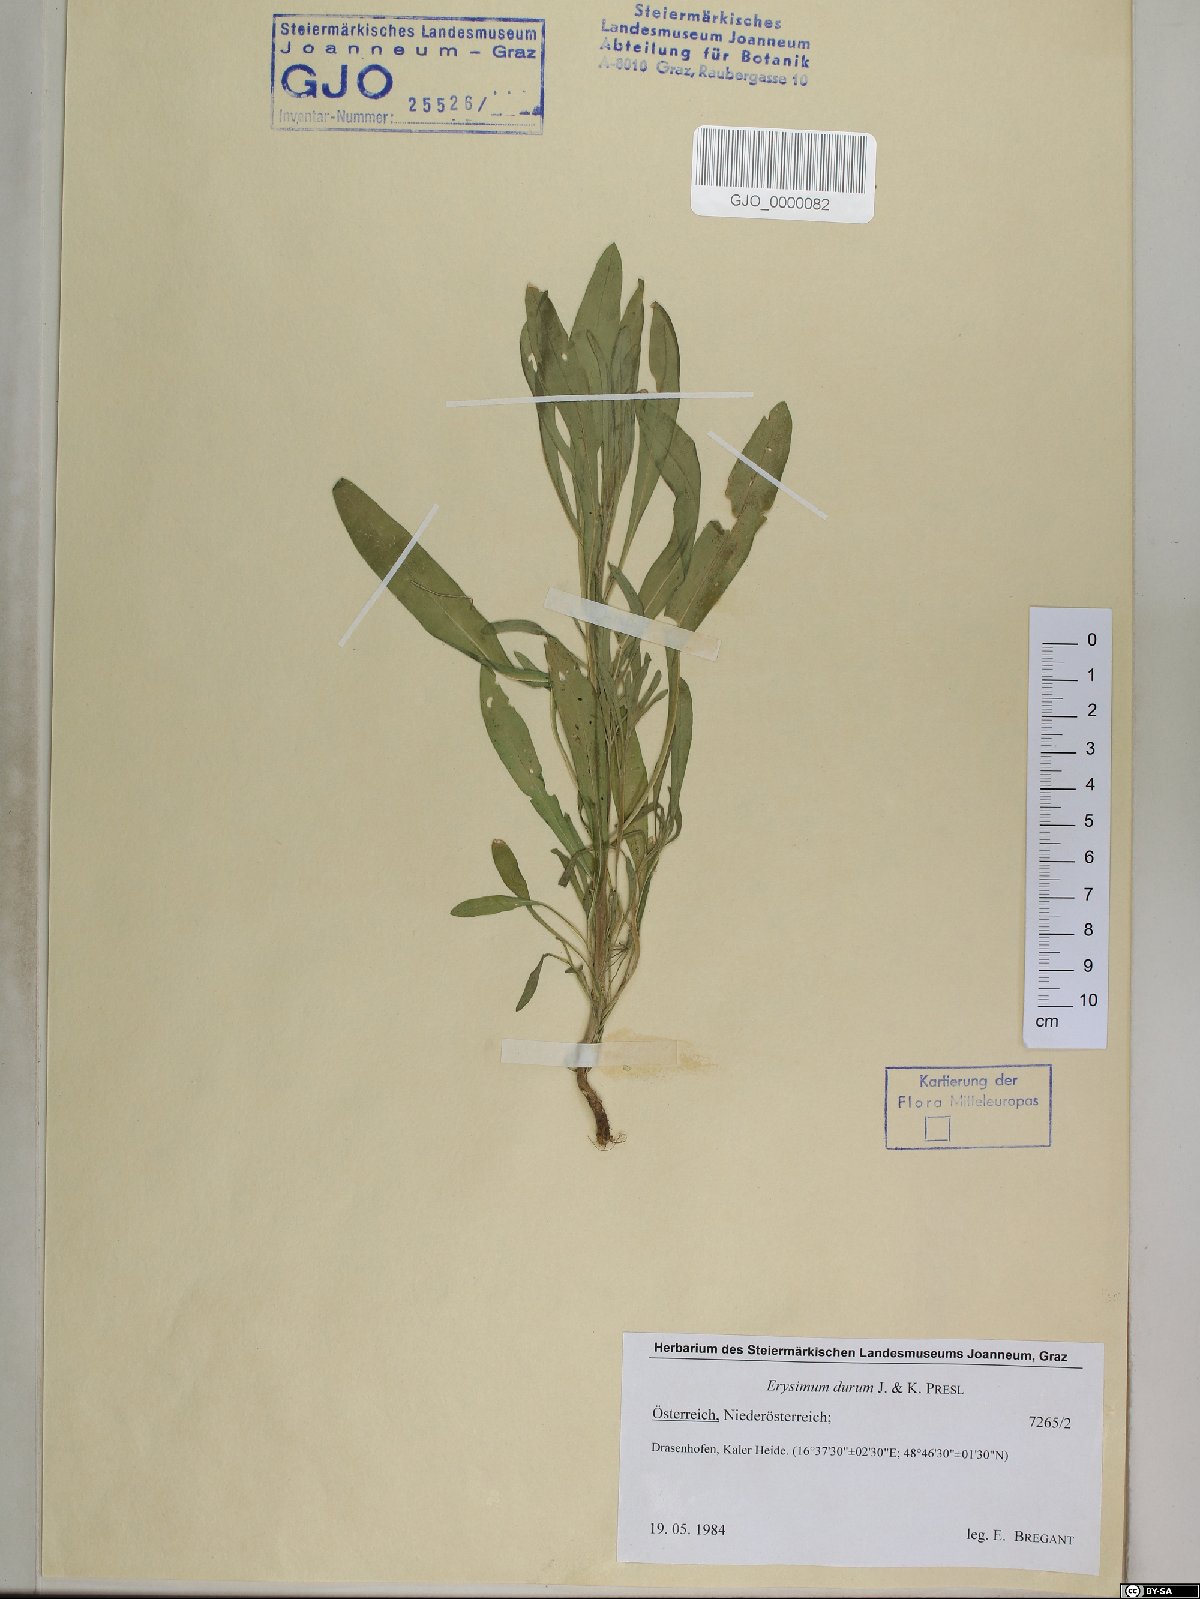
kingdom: Plantae
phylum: Tracheophyta
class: Magnoliopsida
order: Brassicales
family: Brassicaceae
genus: Erysimum
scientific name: Erysimum marschallianum
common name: Hard wallflower
